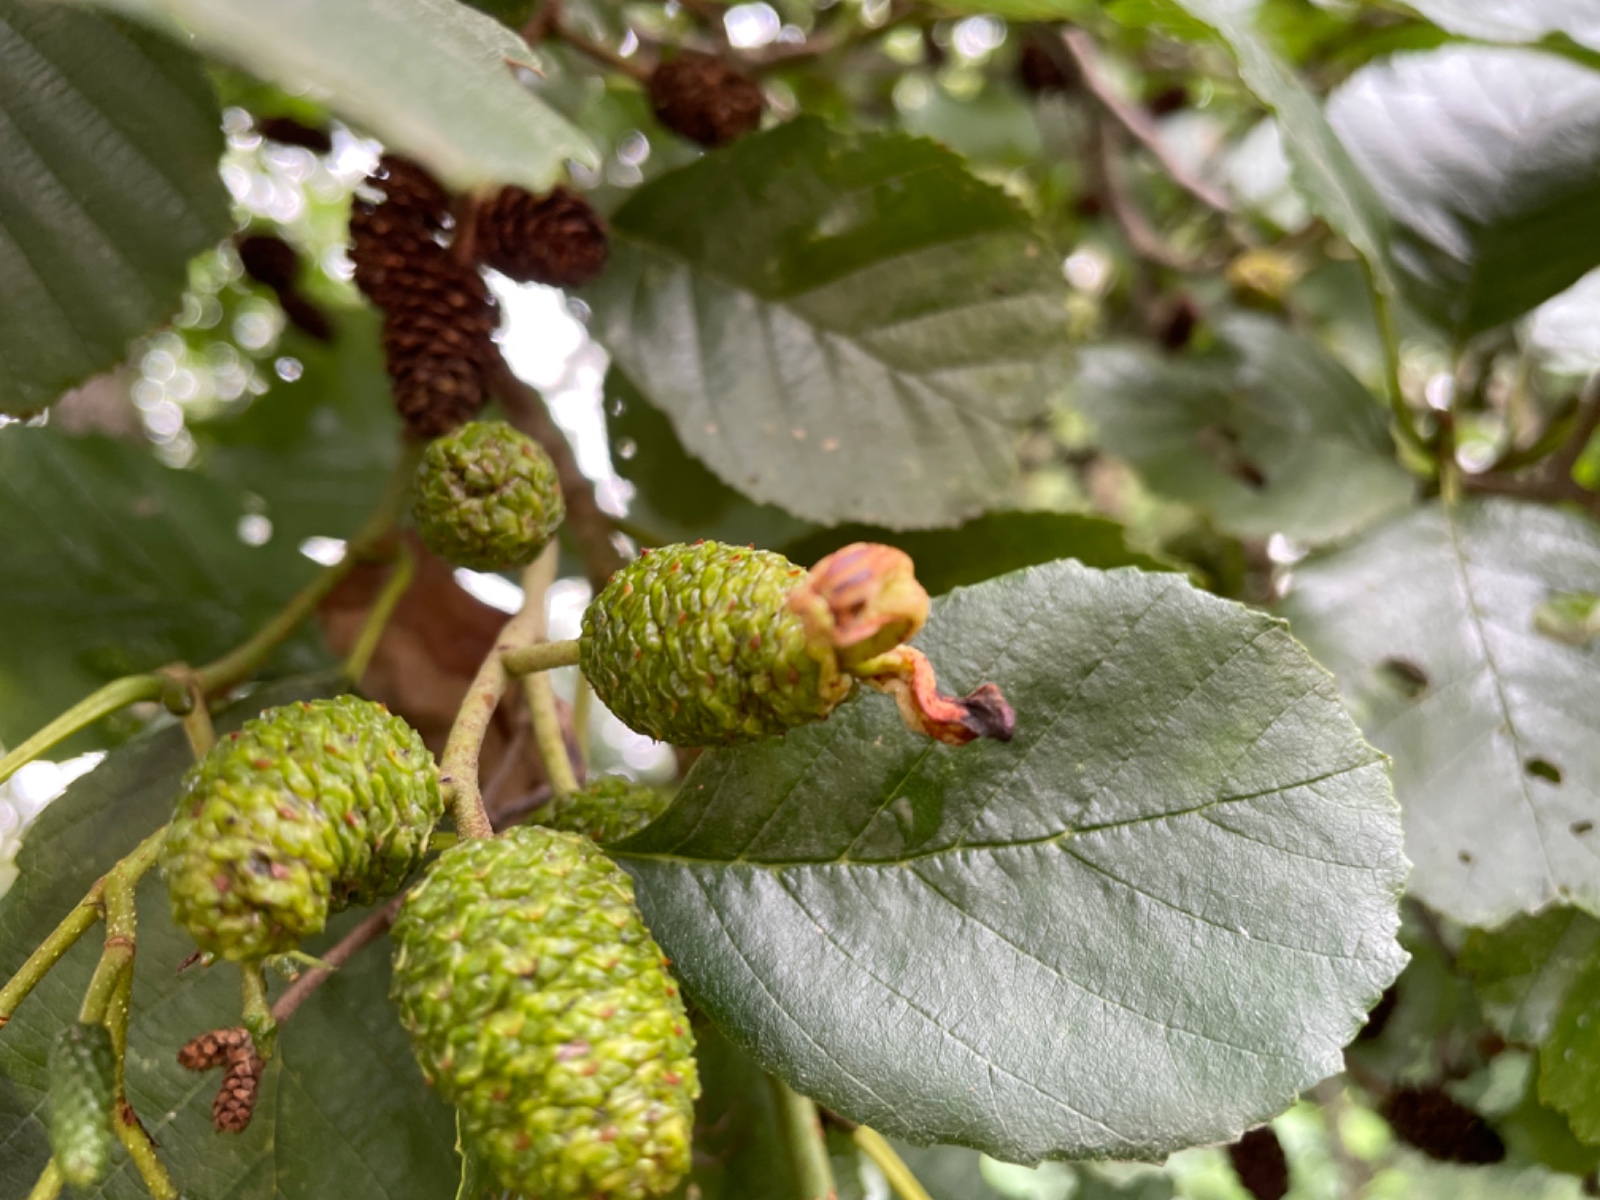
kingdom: Fungi
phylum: Ascomycota
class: Taphrinomycetes
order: Taphrinales
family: Taphrinaceae
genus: Taphrina
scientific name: Taphrina alni
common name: Alder tongue
